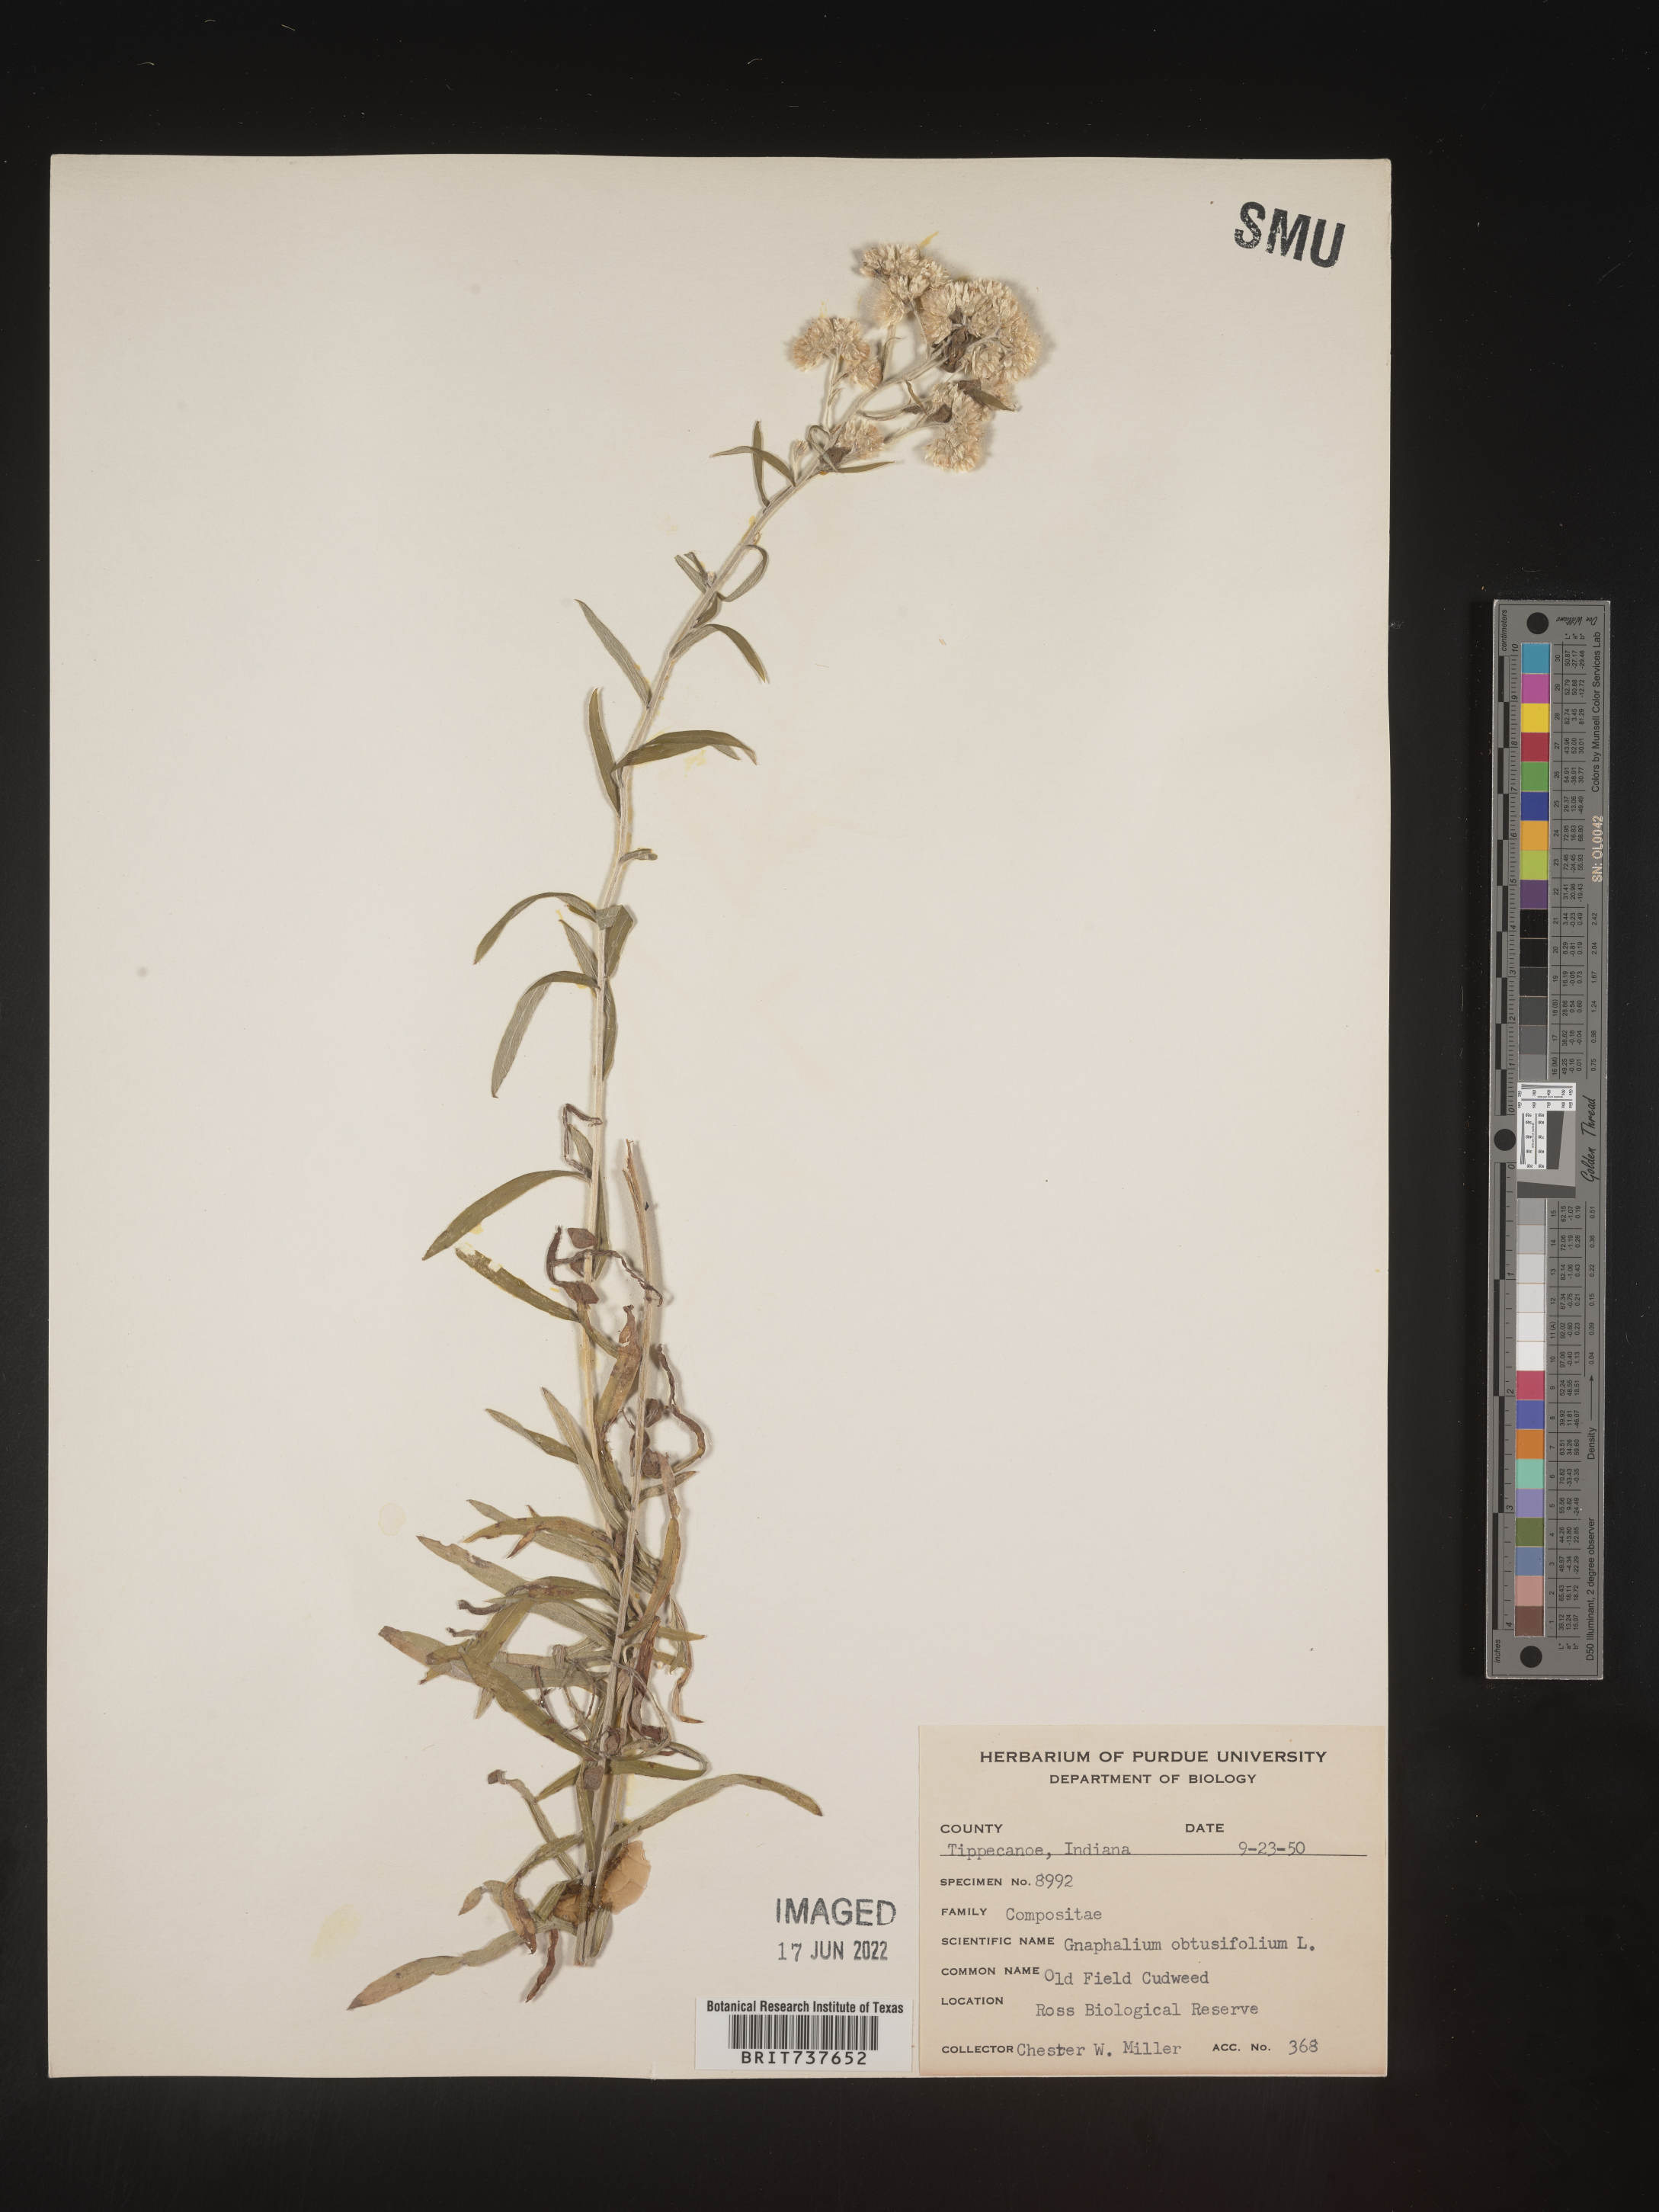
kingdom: Plantae
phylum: Tracheophyta
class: Magnoliopsida
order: Asterales
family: Asteraceae
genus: Pseudognaphalium
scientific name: Pseudognaphalium obtusifolium
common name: Eastern rabbit-tobacco
